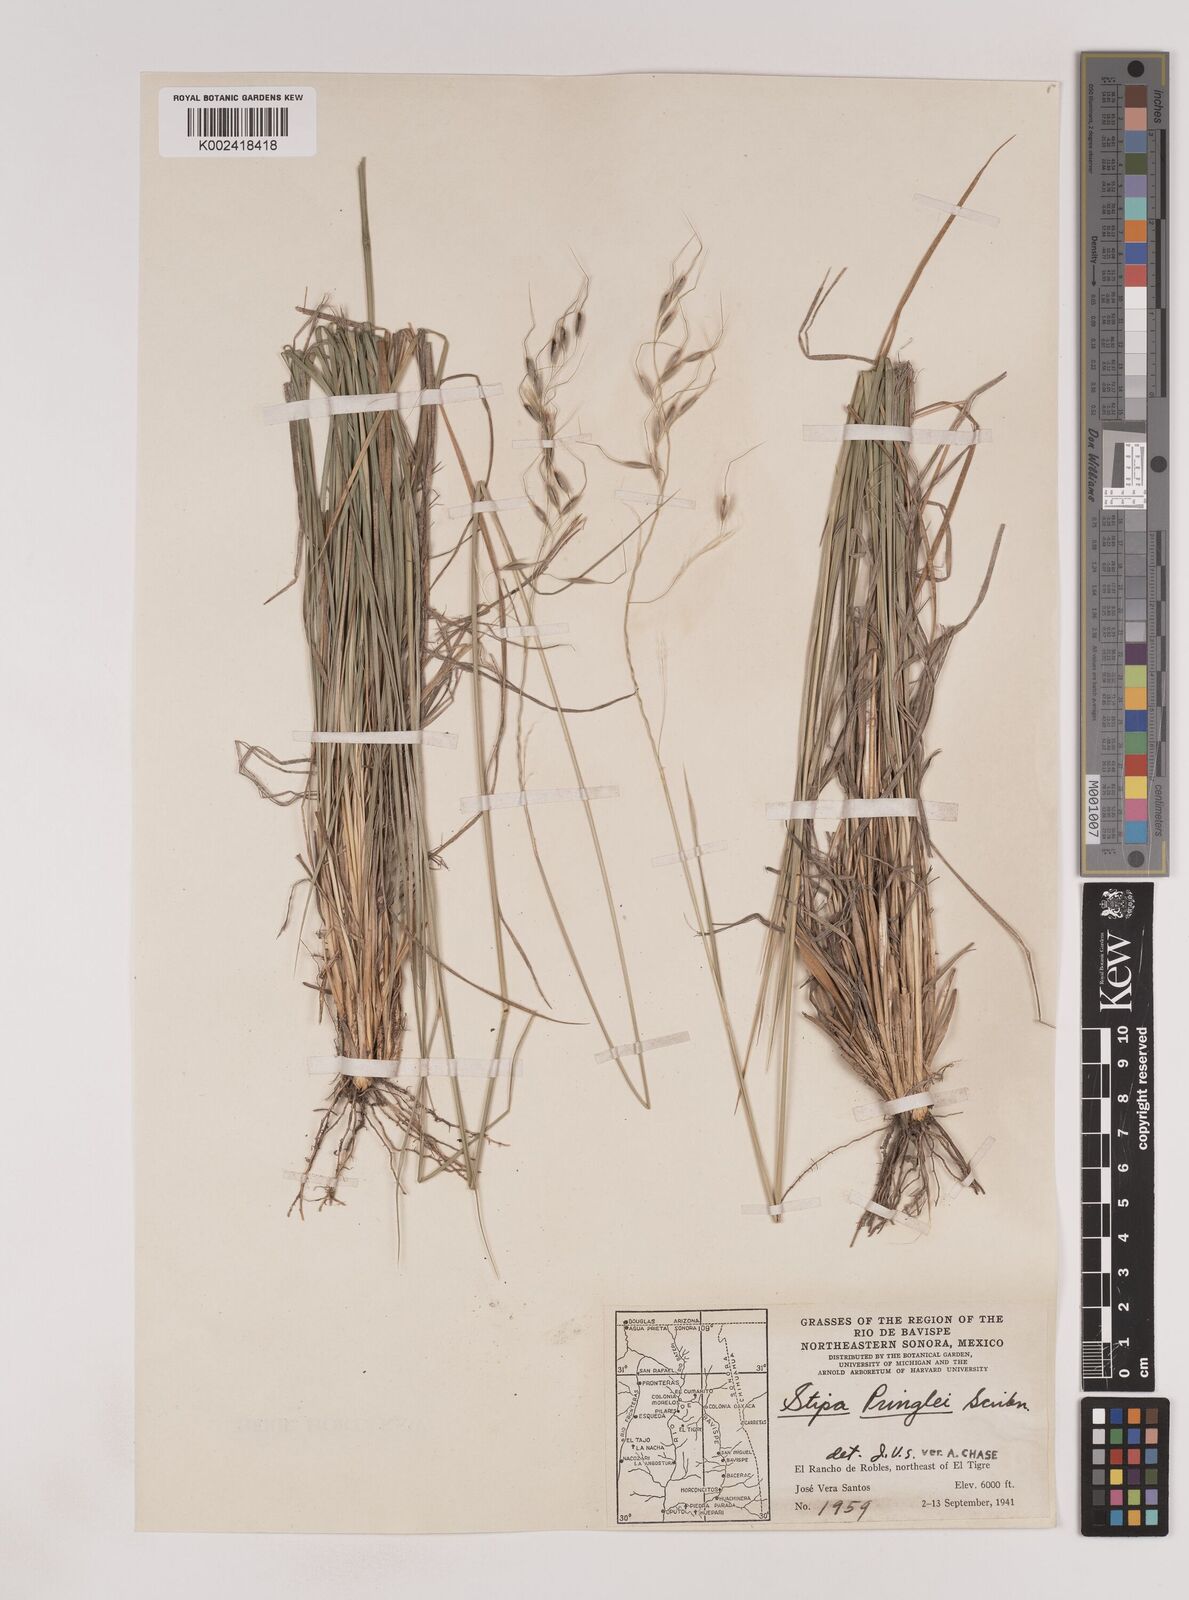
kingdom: Plantae
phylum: Tracheophyta
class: Liliopsida
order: Poales
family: Poaceae
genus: Piptochaetium
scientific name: Piptochaetium pringlei
